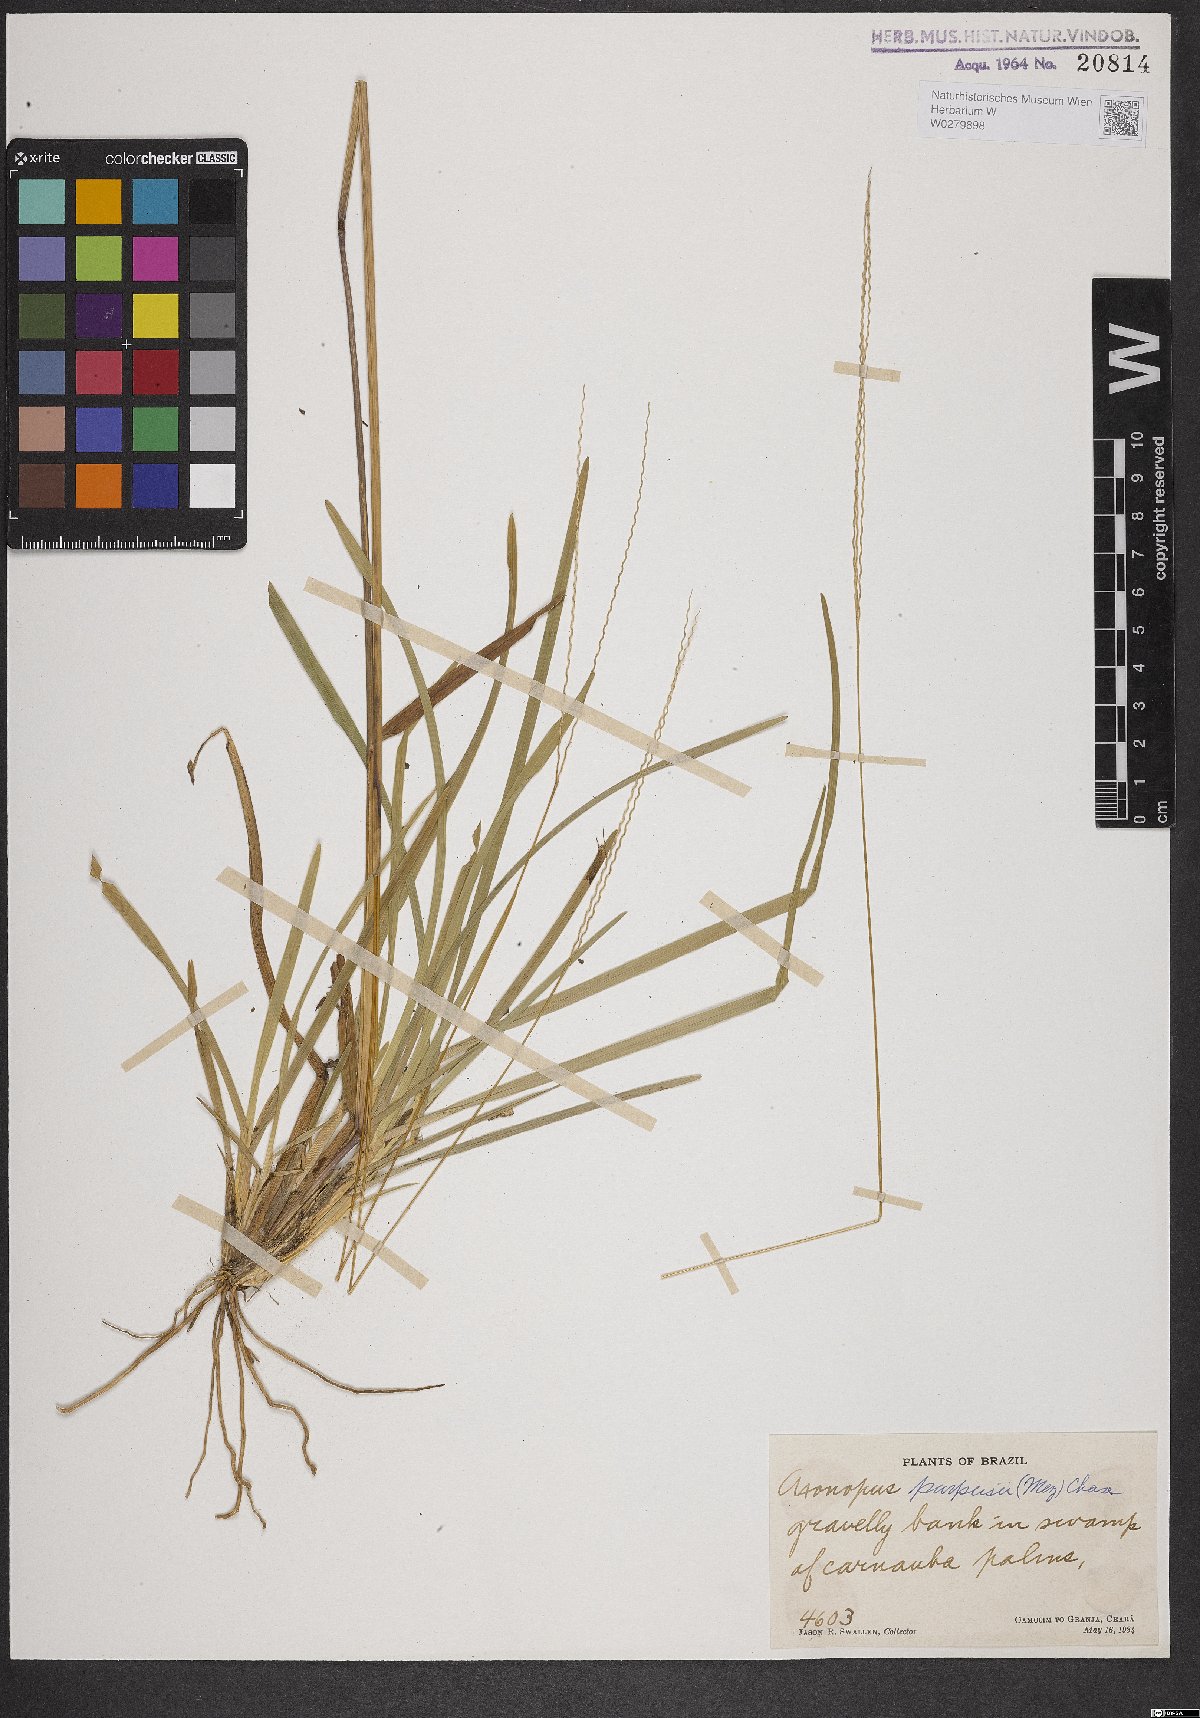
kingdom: Plantae
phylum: Tracheophyta
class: Liliopsida
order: Poales
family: Poaceae
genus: Axonopus
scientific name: Axonopus purpusii
